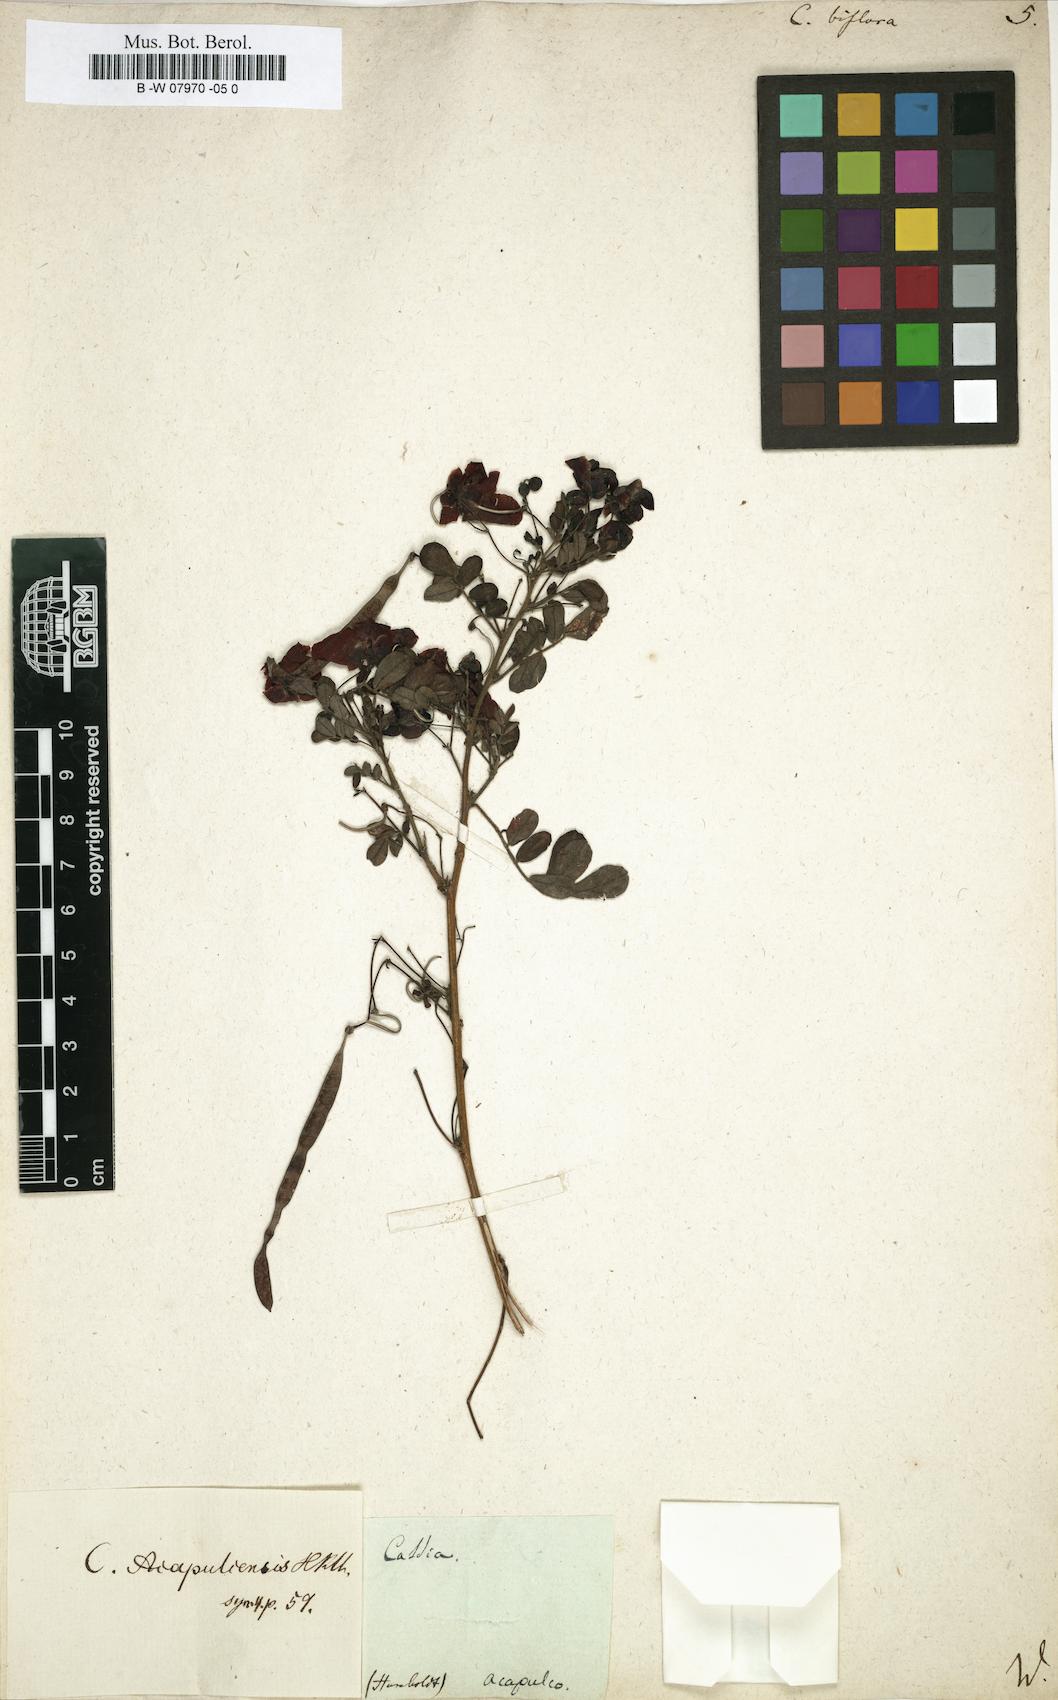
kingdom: Plantae
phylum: Tracheophyta
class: Magnoliopsida
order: Fabales
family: Fabaceae
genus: Senna
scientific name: Senna pallida
